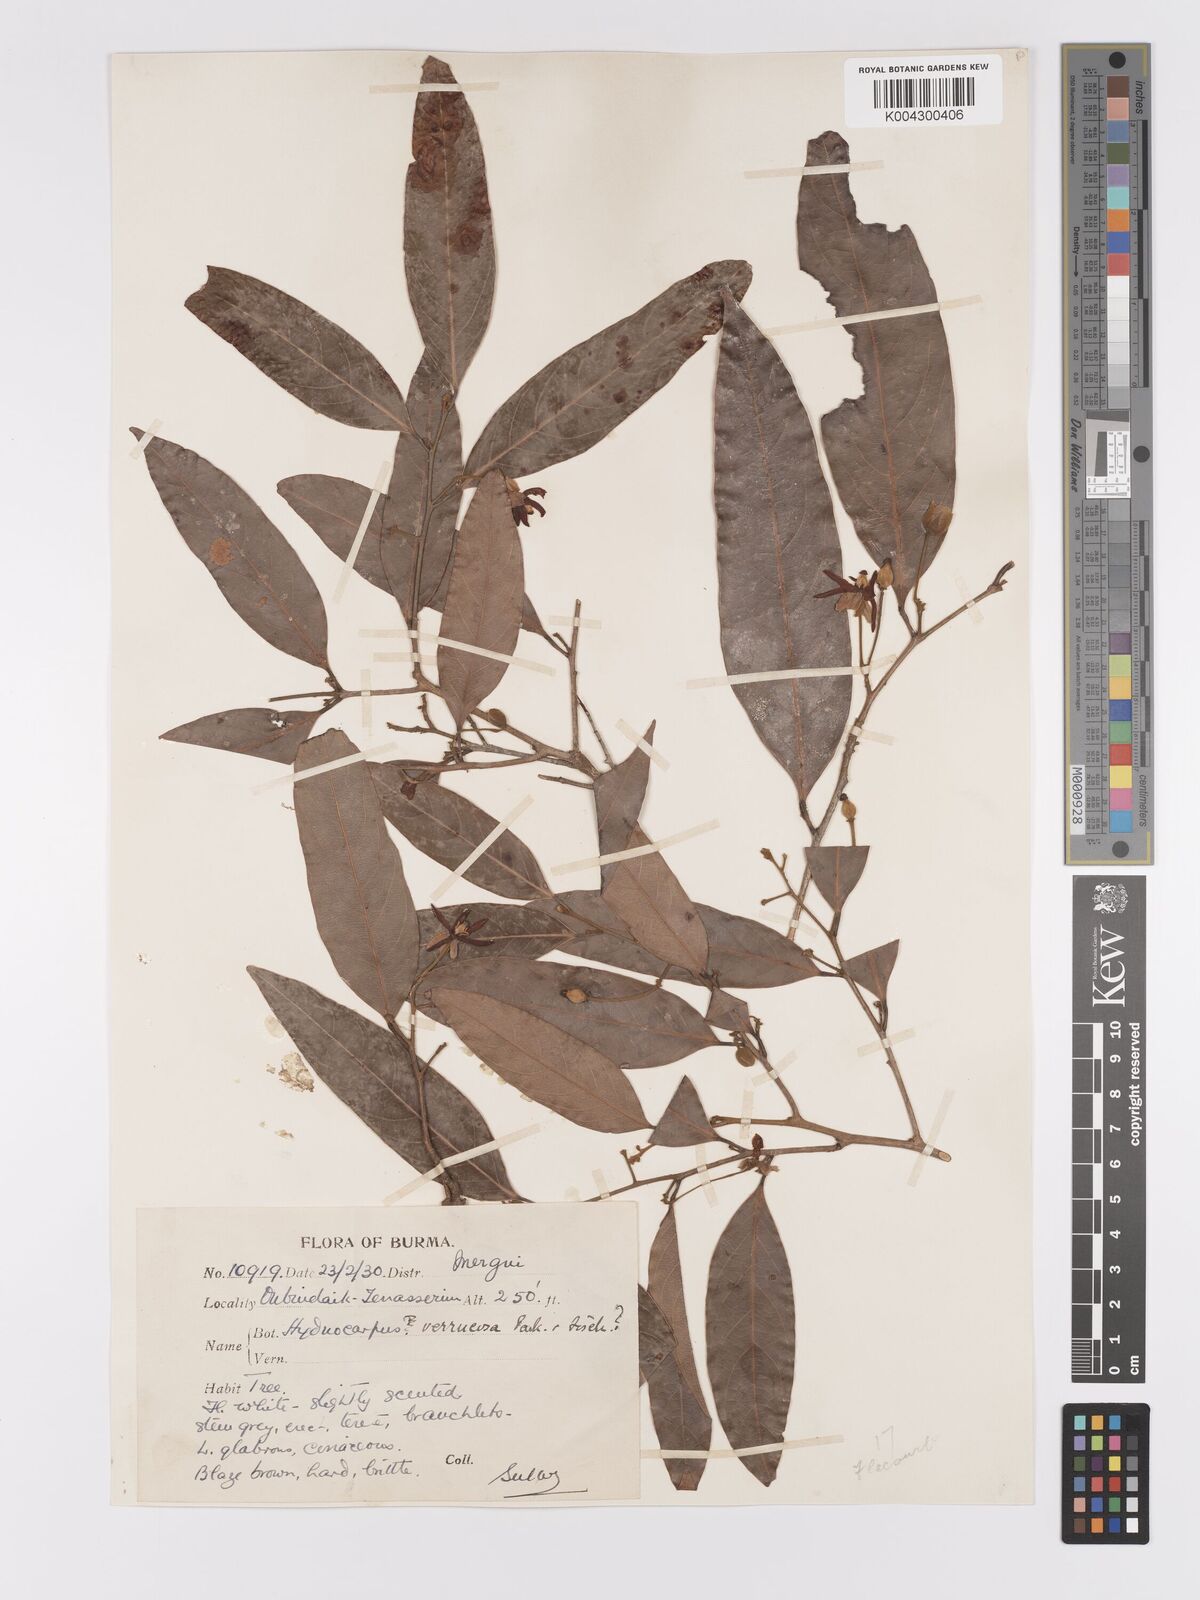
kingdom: Plantae
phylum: Tracheophyta
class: Magnoliopsida
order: Malpighiales
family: Achariaceae
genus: Hydnocarpus
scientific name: Hydnocarpus verrucosus
